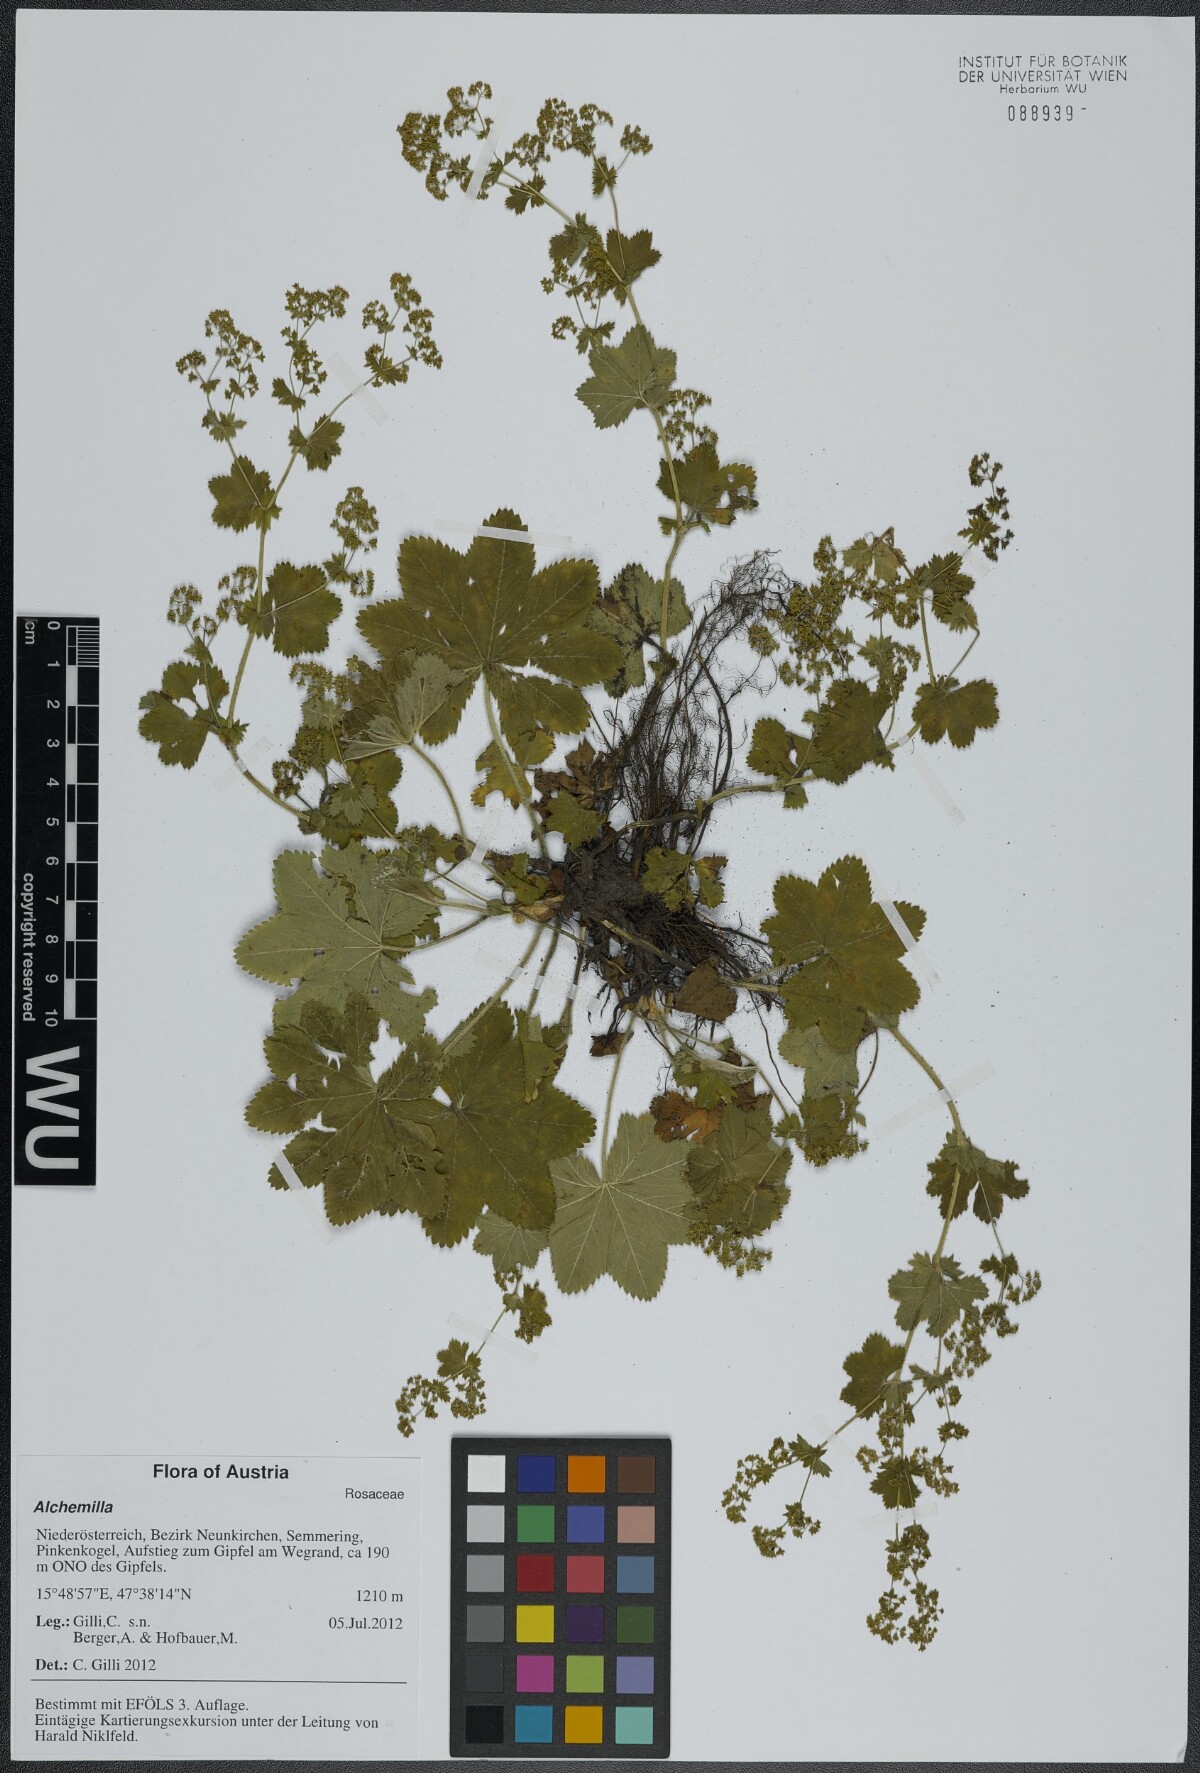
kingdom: Plantae
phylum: Tracheophyta
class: Magnoliopsida
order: Rosales
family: Rosaceae
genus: Alchemilla
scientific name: Alchemilla
